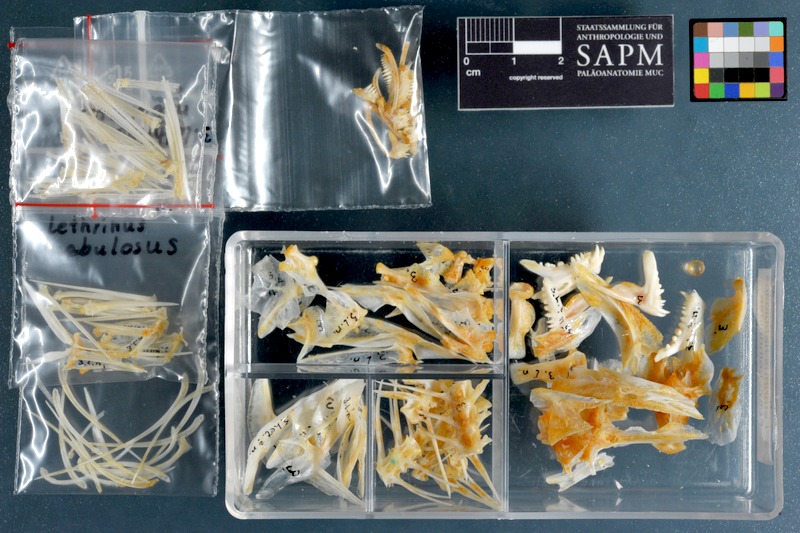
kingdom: Animalia
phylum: Chordata
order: Perciformes
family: Lethrinidae
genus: Lethrinus
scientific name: Lethrinus nebulosus
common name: Spangled emperor
